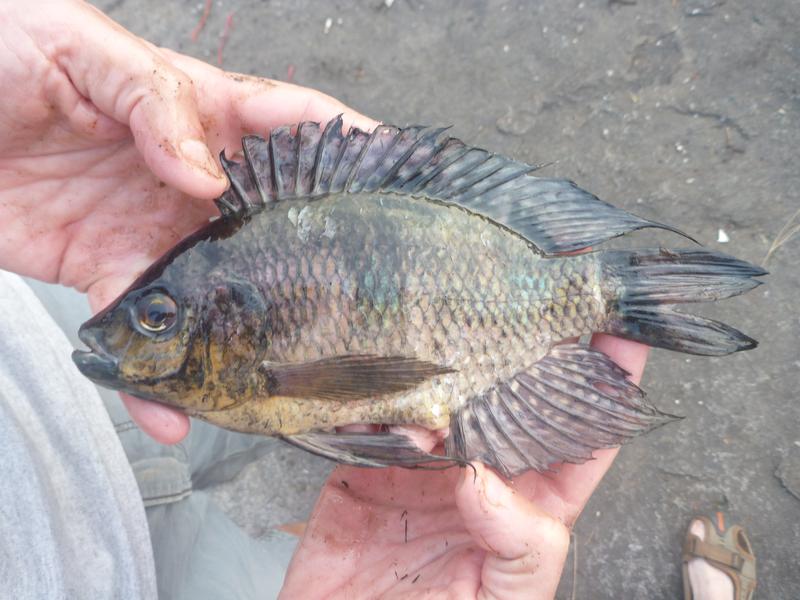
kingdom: Animalia
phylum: Chordata
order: Perciformes
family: Cichlidae
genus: Oreochromis
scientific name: Oreochromis leucostictus
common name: Blue spotted tilapia
